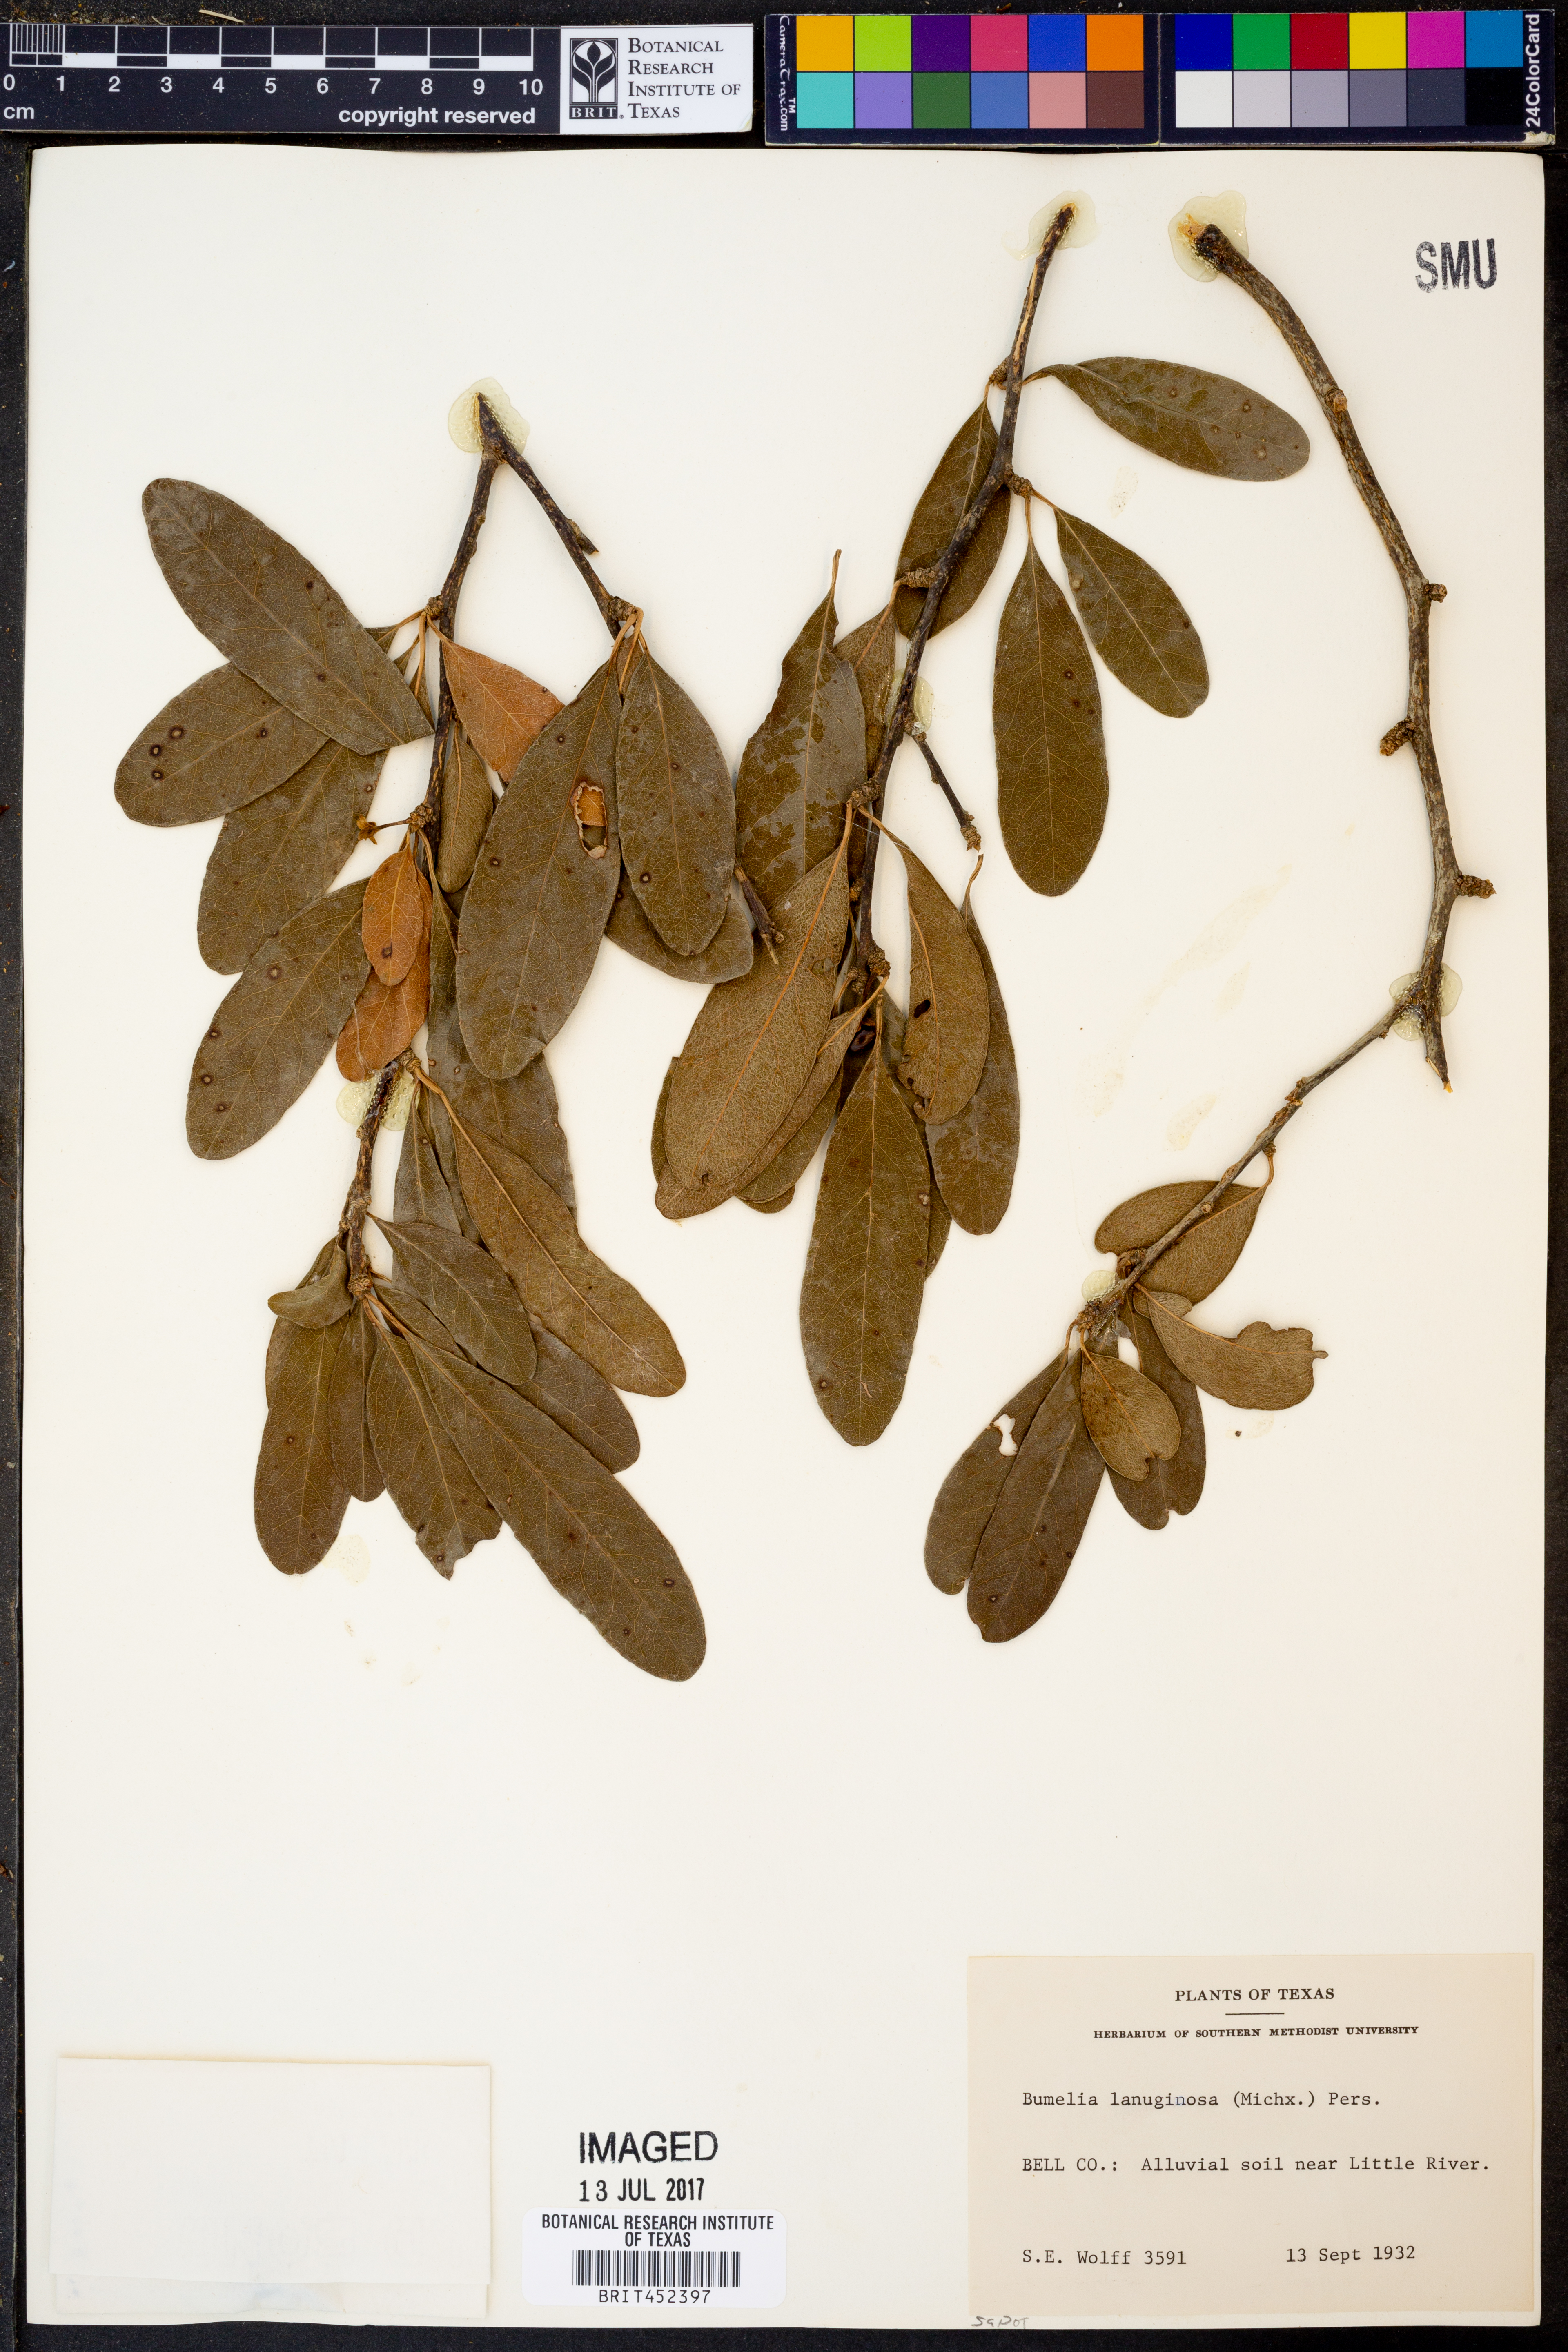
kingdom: Plantae
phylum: Tracheophyta
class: Magnoliopsida
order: Ericales
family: Sapotaceae
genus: Sideroxylon
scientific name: Sideroxylon lanuginosum
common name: Chittamwood
